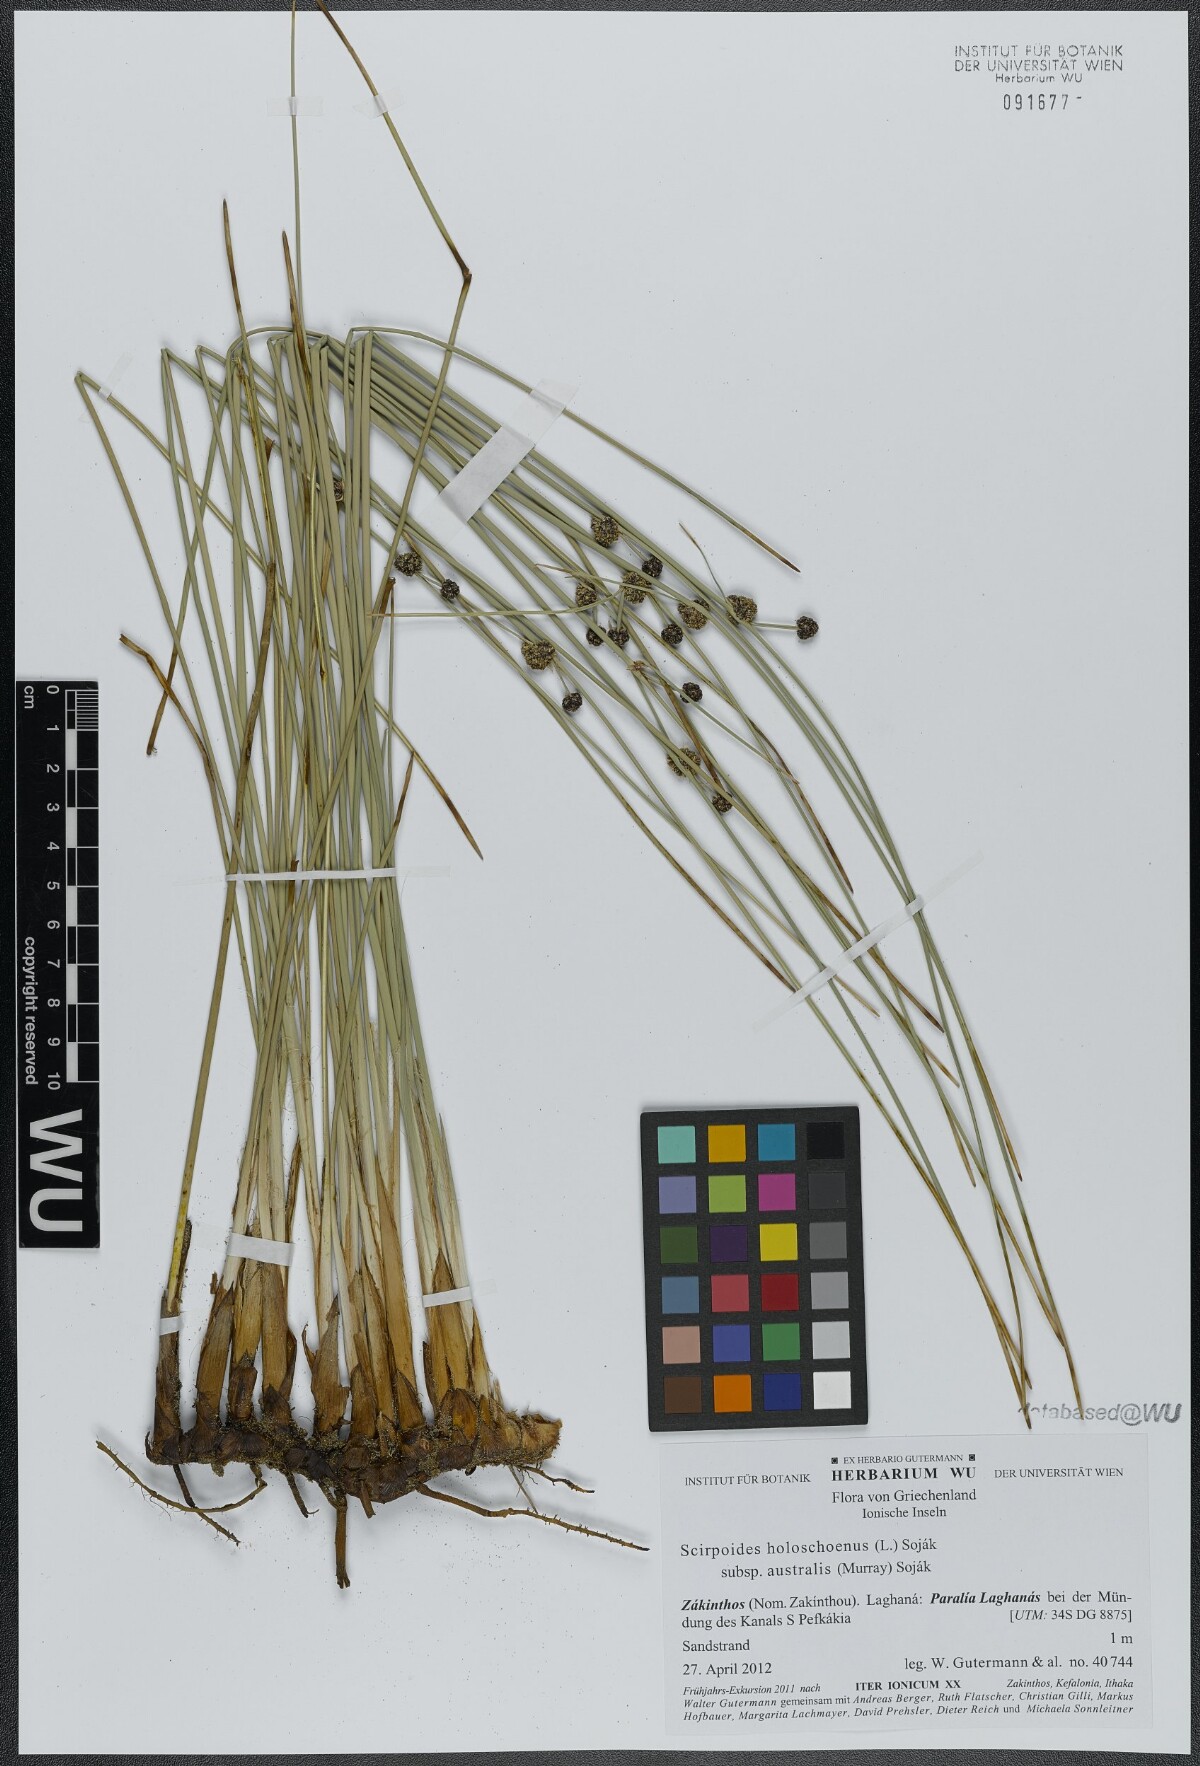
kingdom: Plantae
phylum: Tracheophyta
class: Liliopsida
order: Poales
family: Cyperaceae
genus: Scirpoides
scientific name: Scirpoides holoschoenus
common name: Round-headed club-rush
